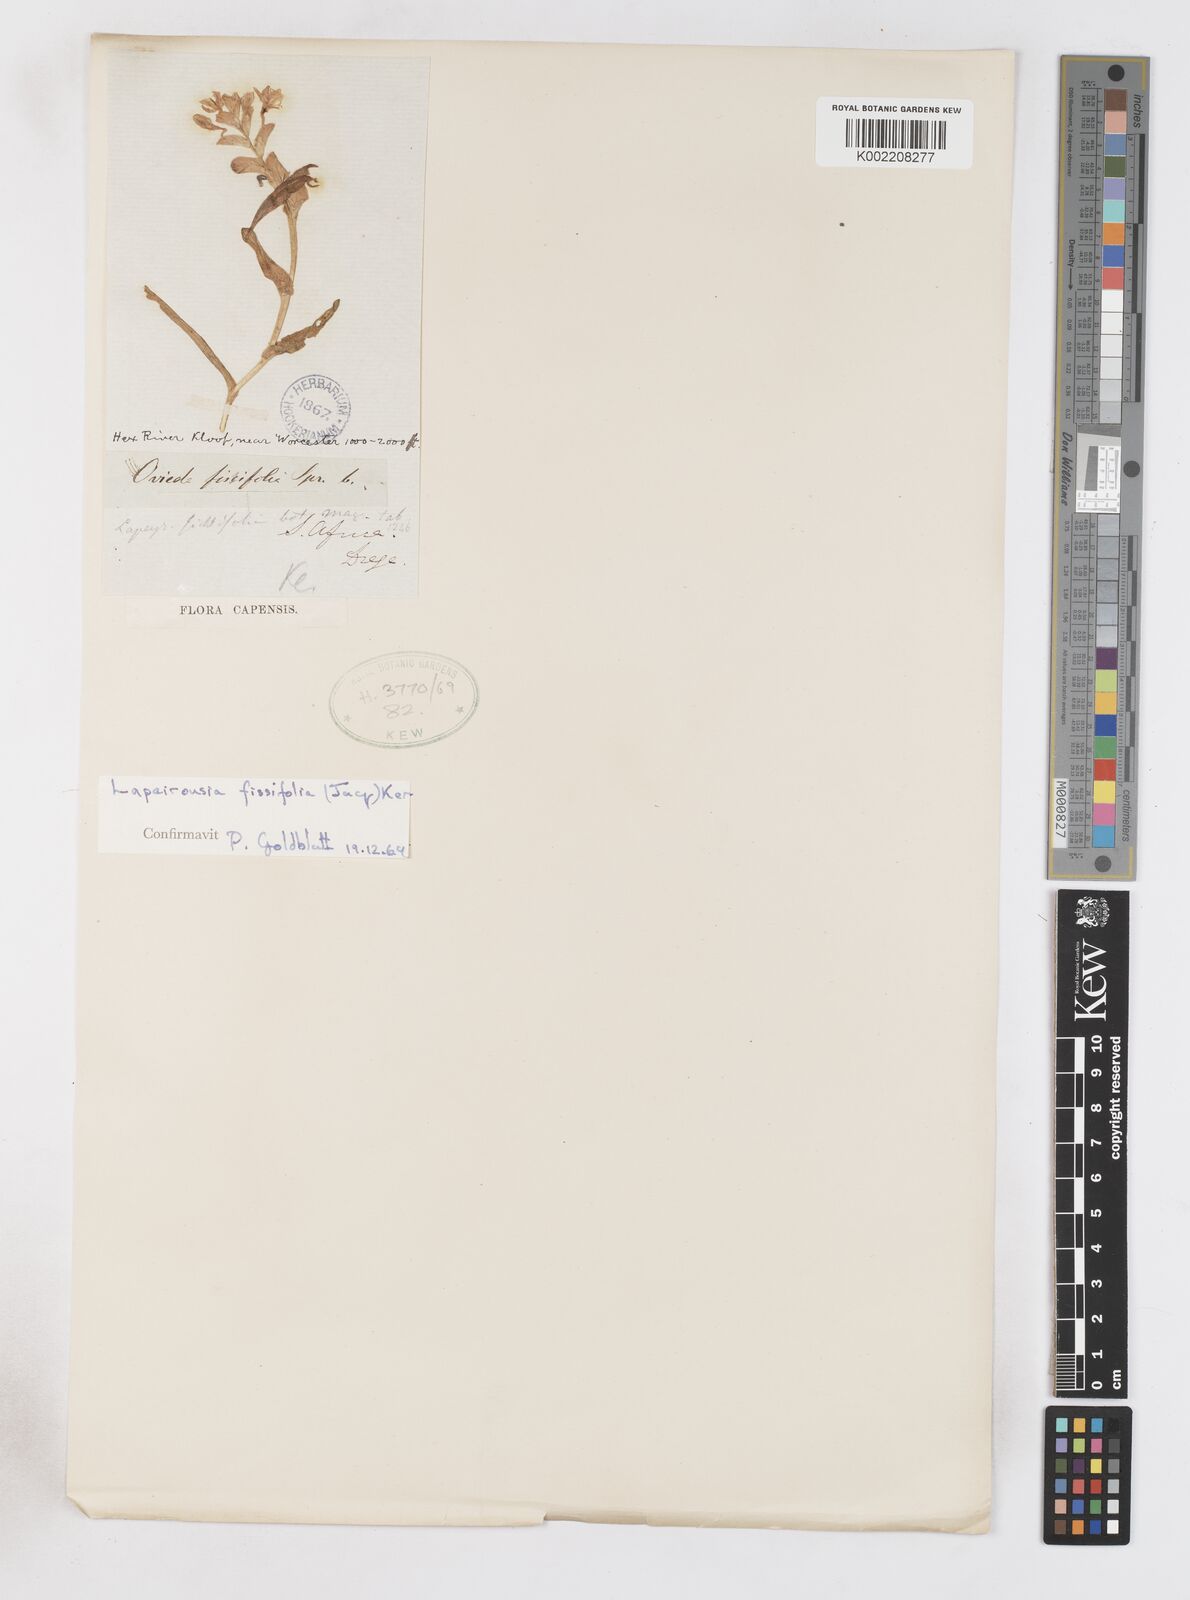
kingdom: Plantae
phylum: Tracheophyta
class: Liliopsida
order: Asparagales
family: Iridaceae
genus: Lapeirousia
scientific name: Lapeirousia pyramidalis
